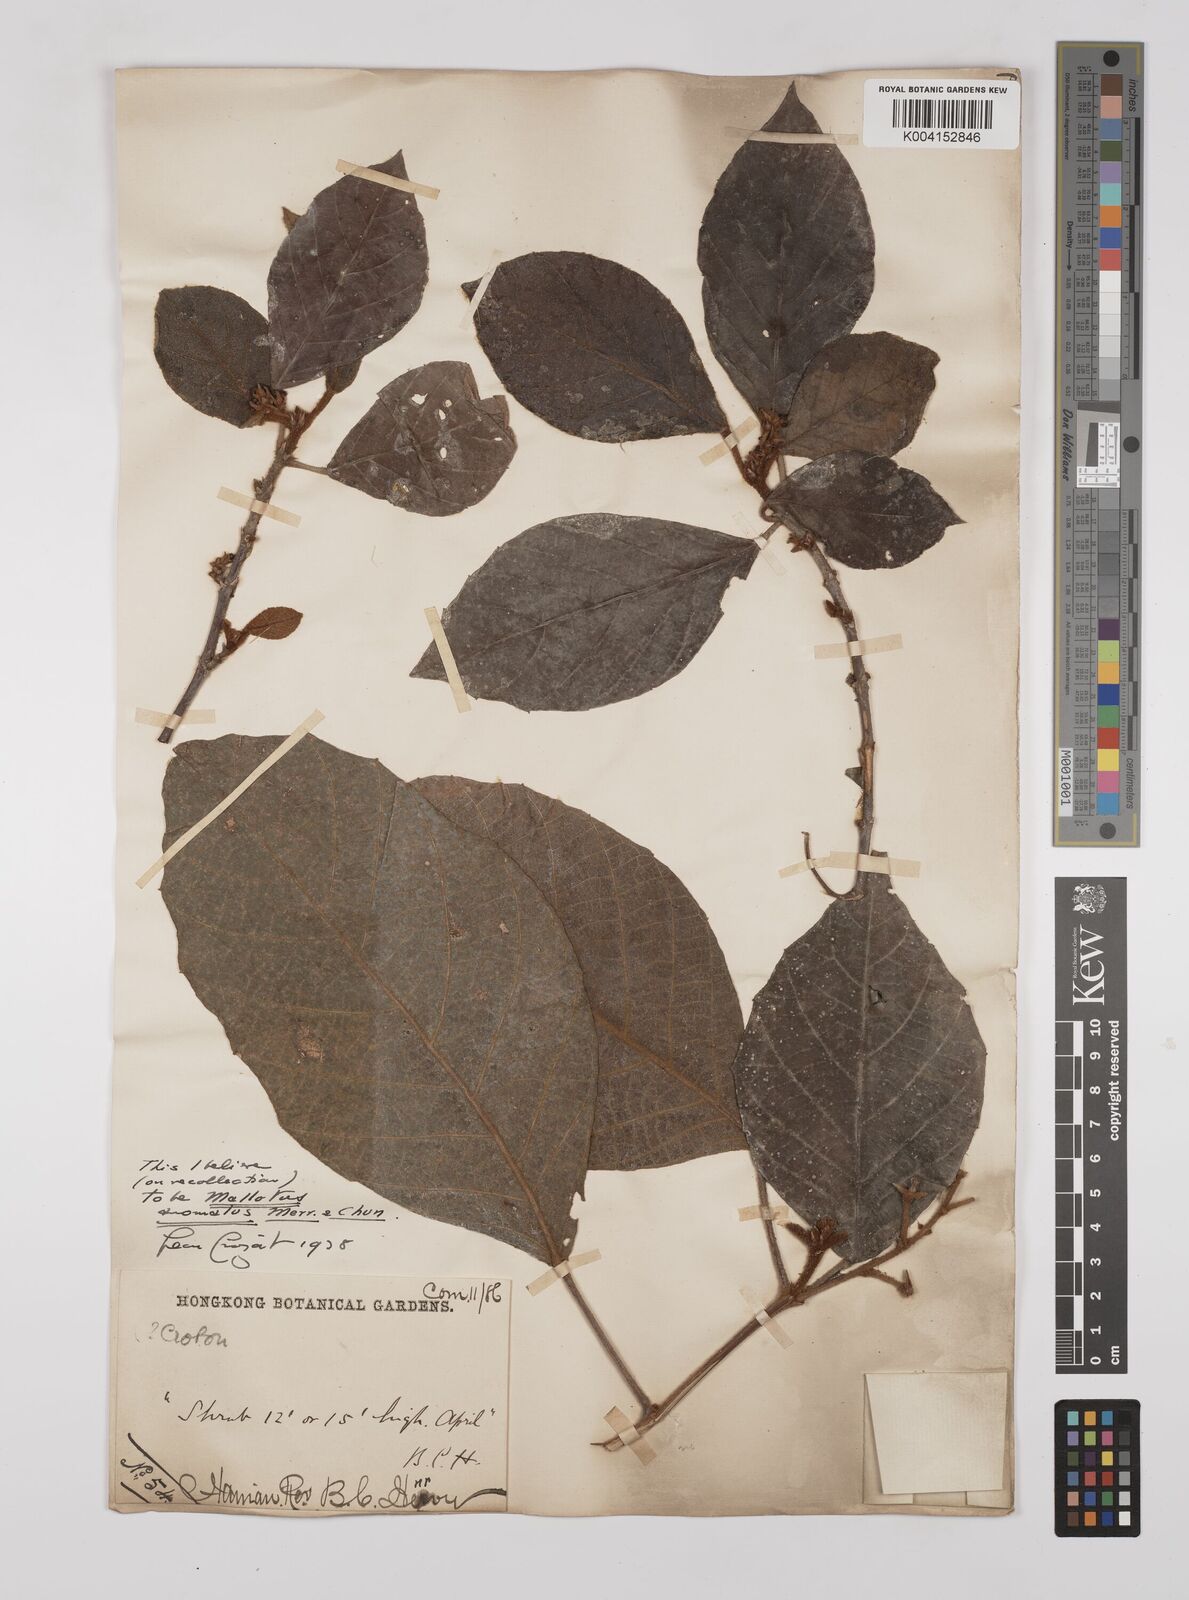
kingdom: Plantae
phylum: Tracheophyta
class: Magnoliopsida
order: Malpighiales
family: Euphorbiaceae
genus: Mallotus
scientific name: Mallotus anomalus
